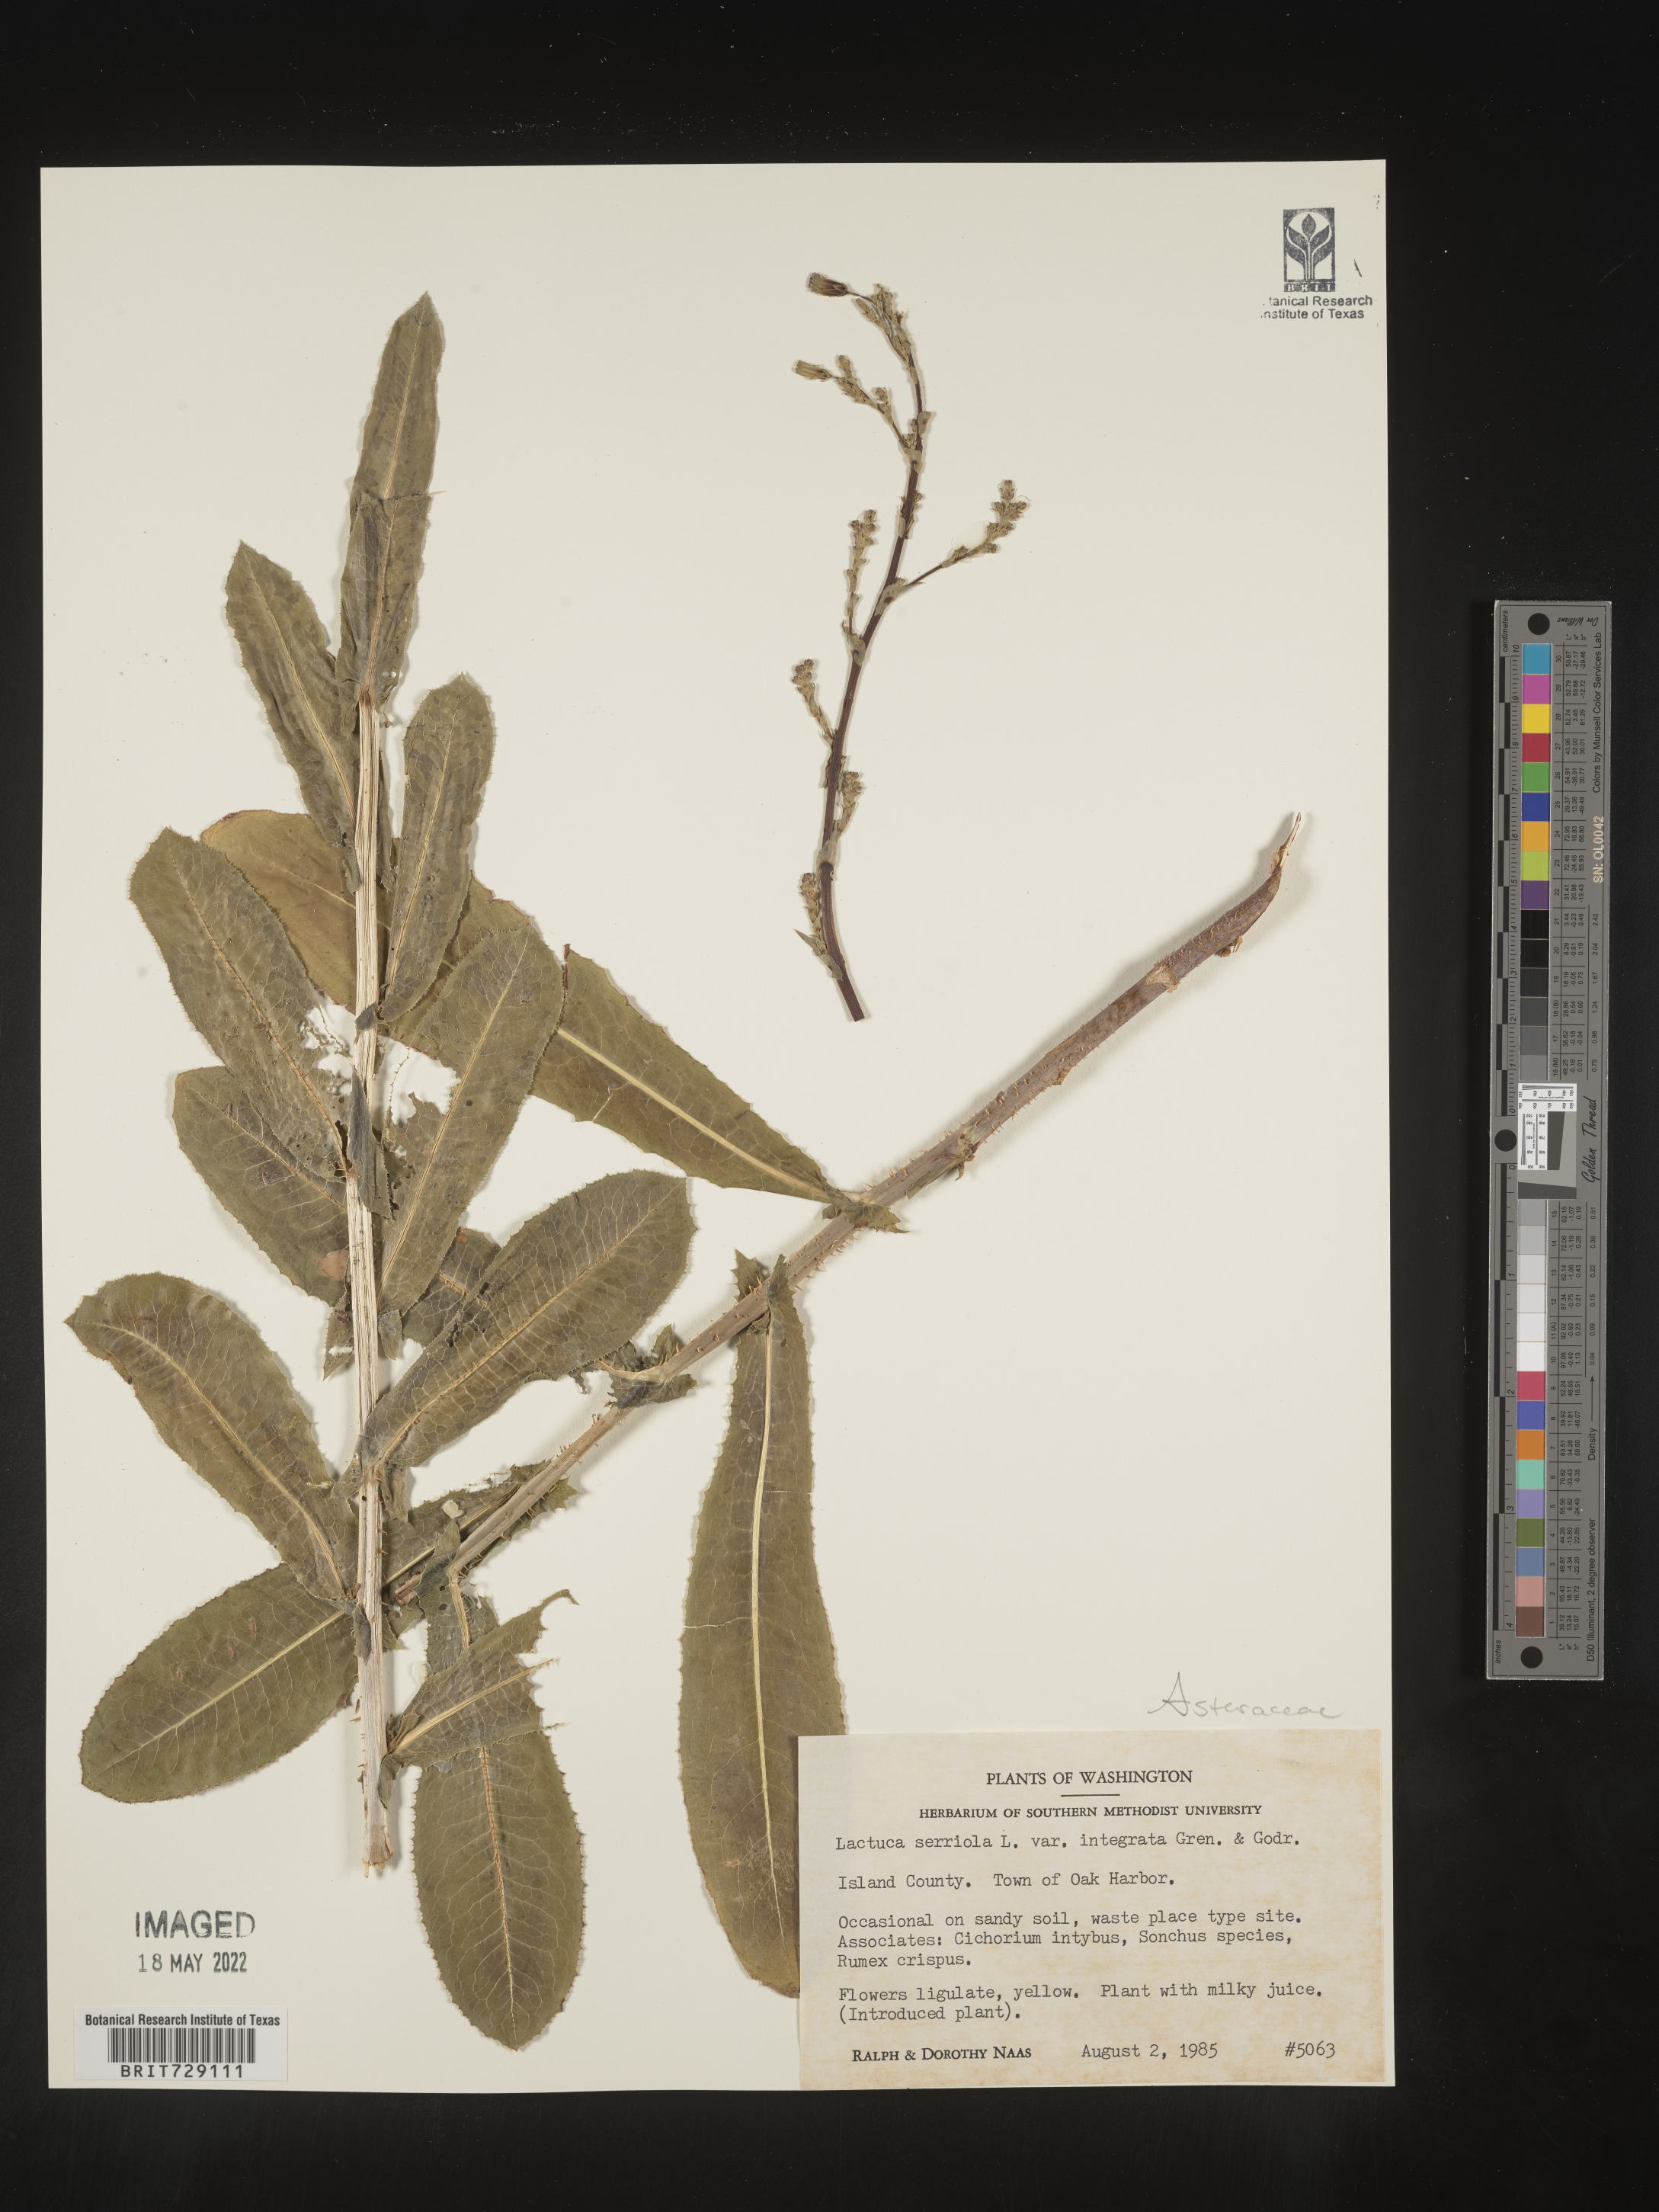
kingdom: Plantae
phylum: Tracheophyta
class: Magnoliopsida
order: Asterales
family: Asteraceae
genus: Lactuca
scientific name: Lactuca serriola
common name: Prickly lettuce
